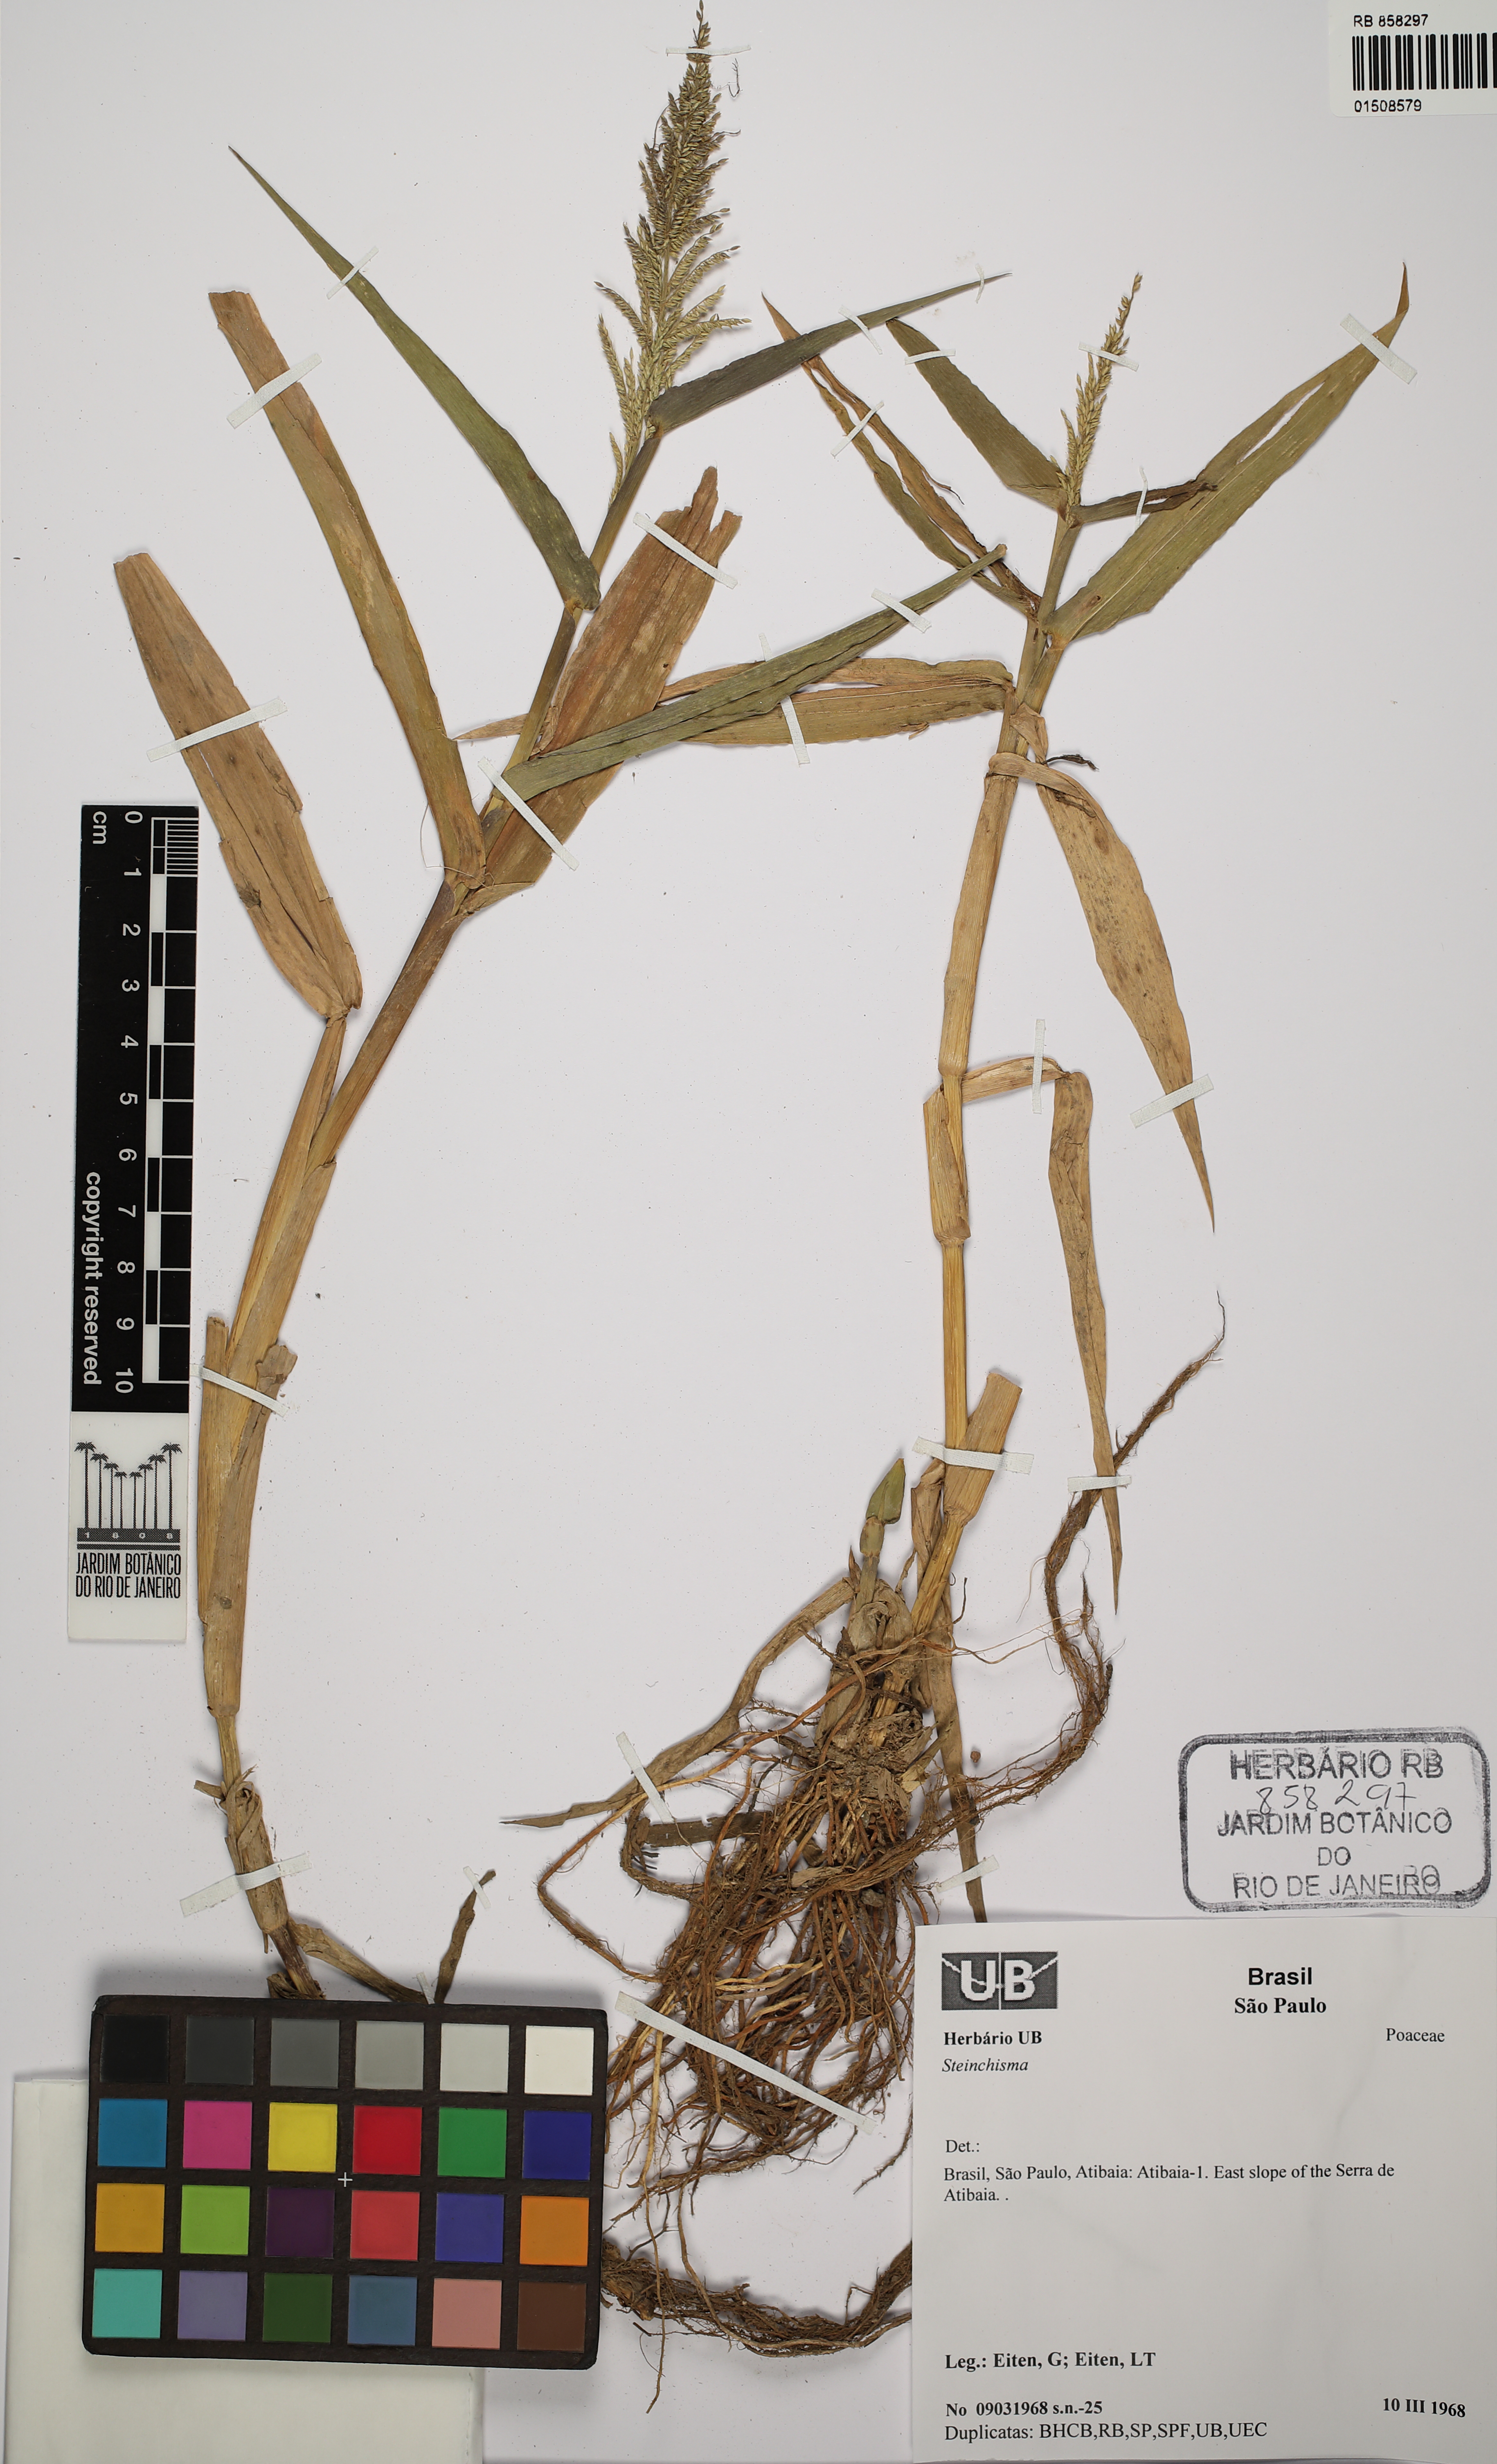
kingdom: Plantae
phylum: Tracheophyta
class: Liliopsida
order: Poales
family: Poaceae
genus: Steinchisma
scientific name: Steinchisma
